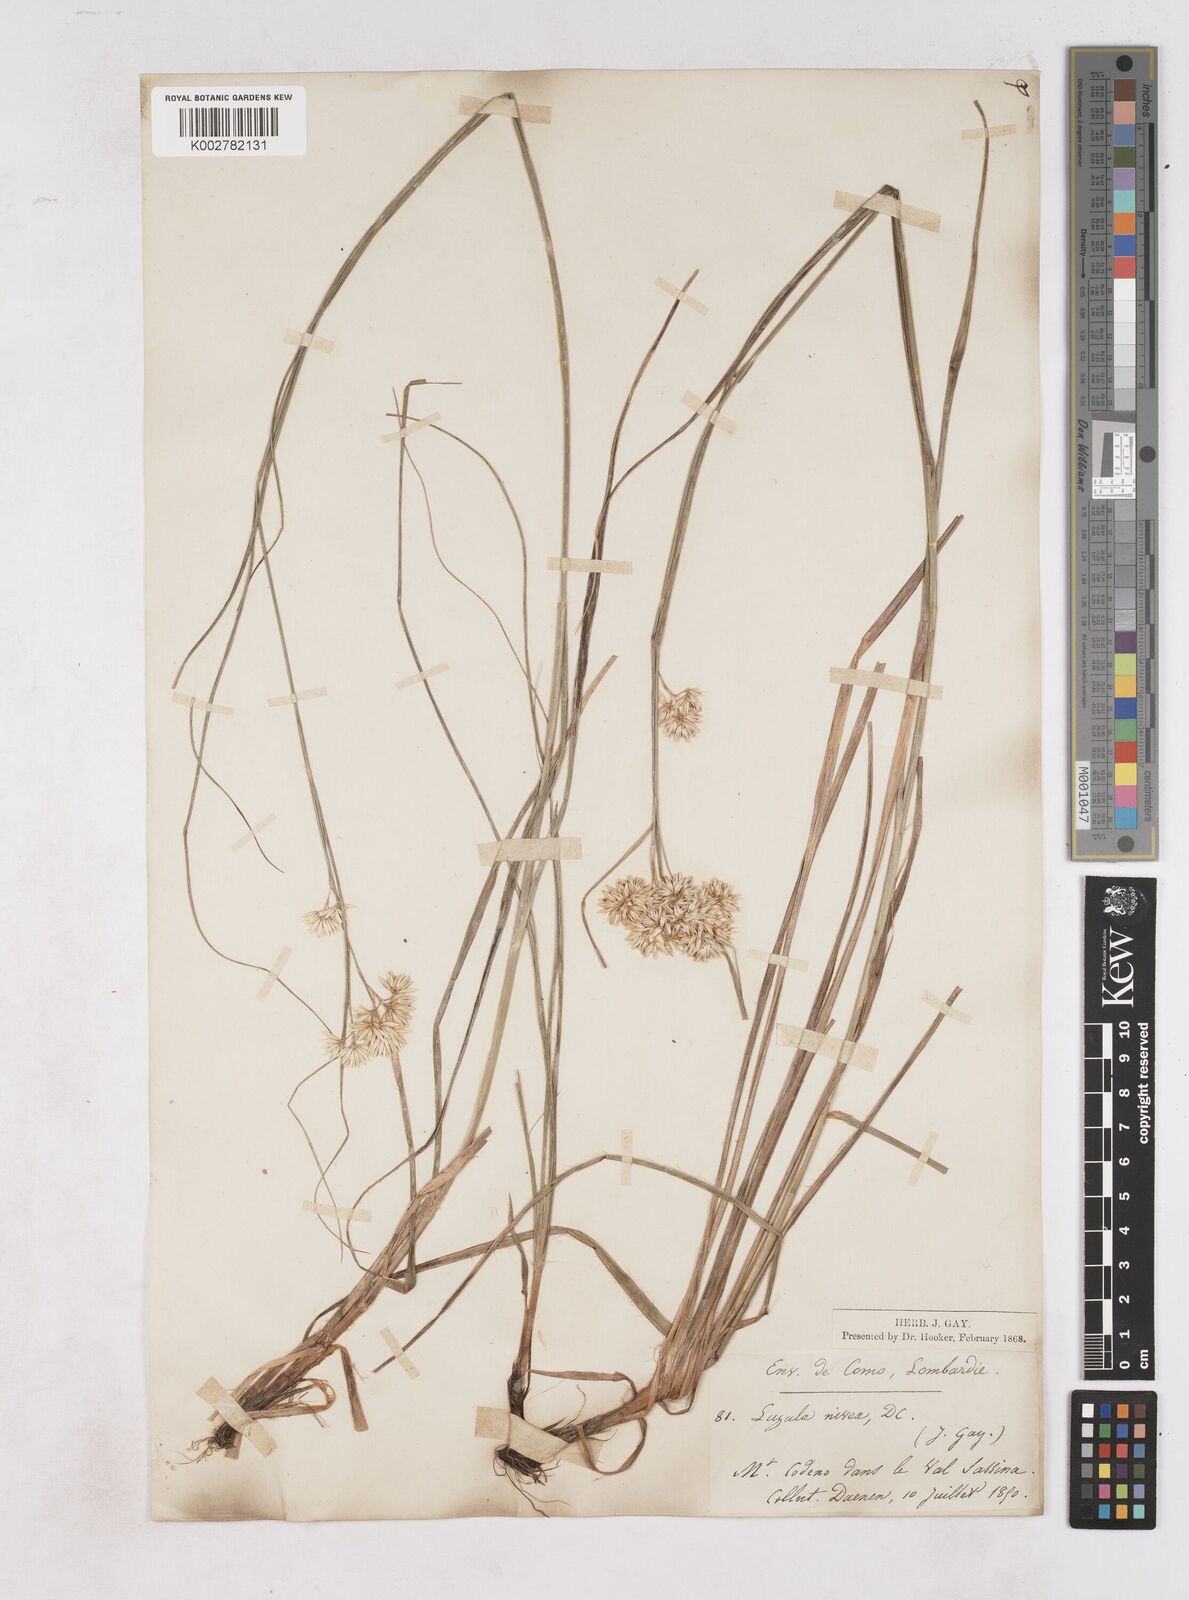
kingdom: Plantae
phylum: Tracheophyta
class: Liliopsida
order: Poales
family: Juncaceae
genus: Luzula
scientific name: Luzula nivea
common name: Snow-white wood-rush
